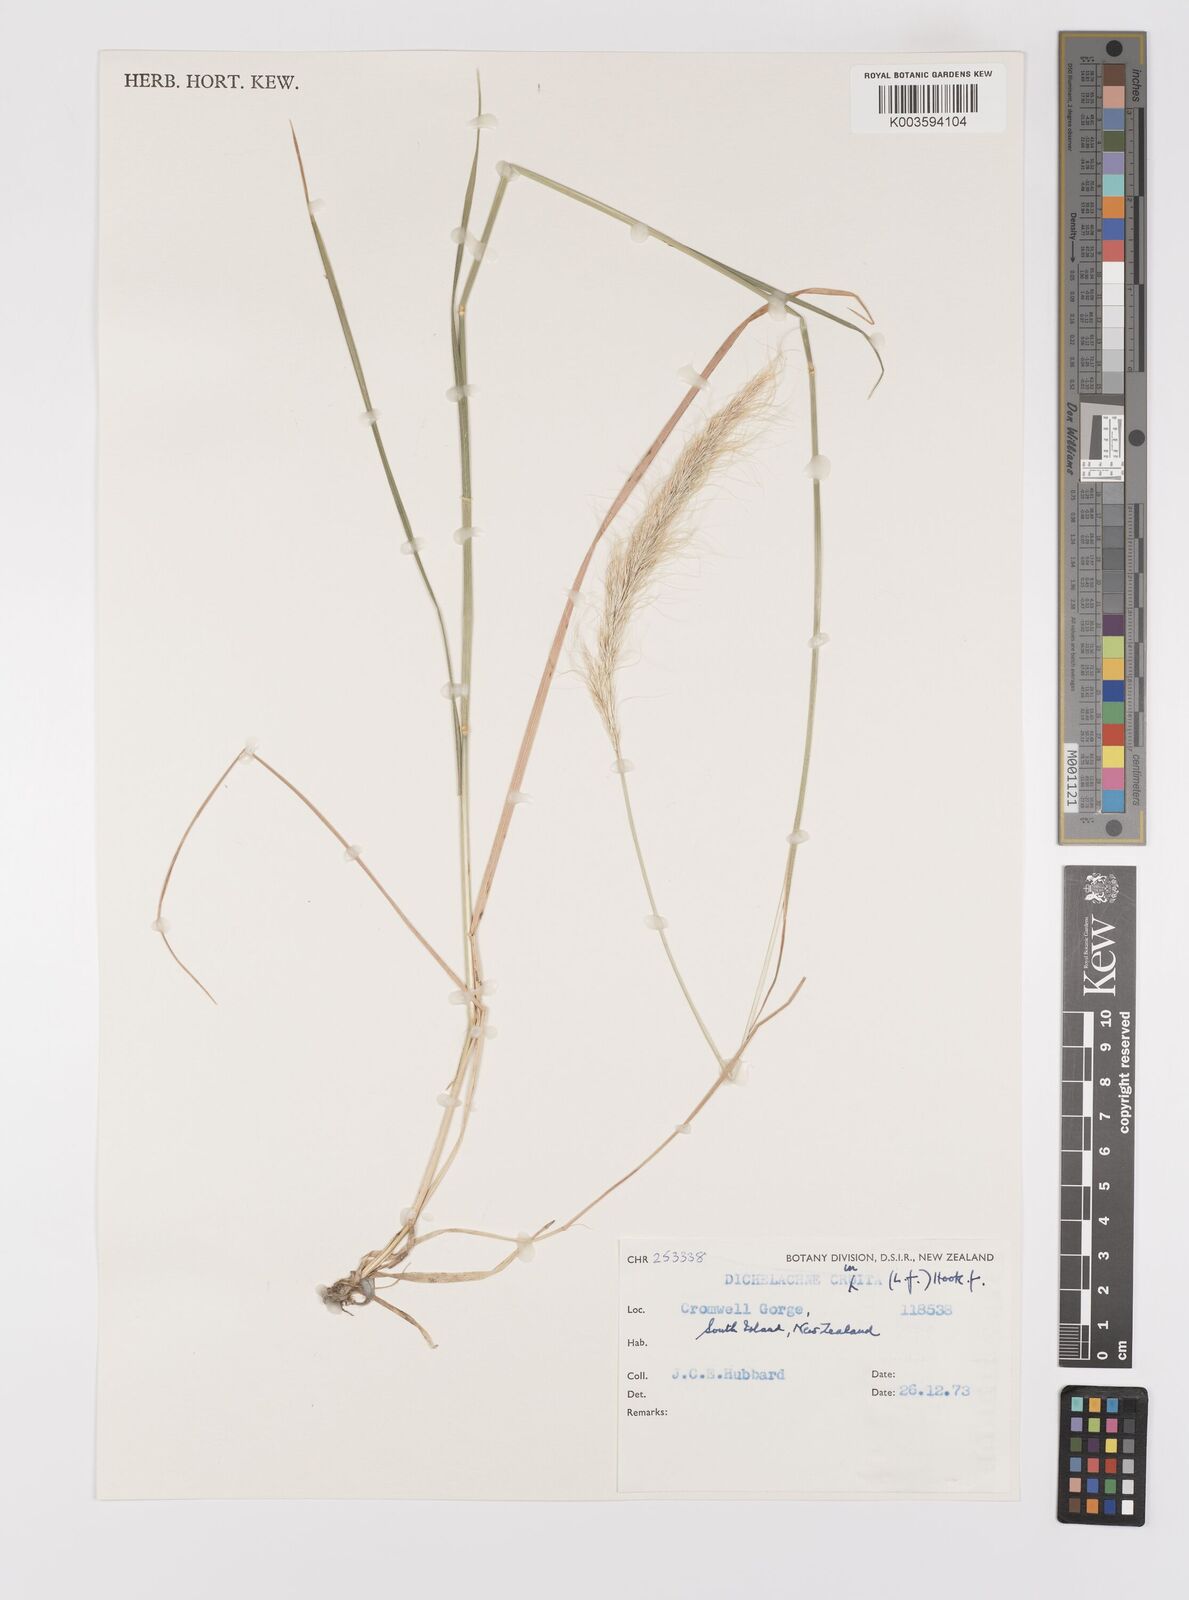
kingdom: Plantae
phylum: Tracheophyta
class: Liliopsida
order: Poales
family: Poaceae
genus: Dichelachne
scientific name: Dichelachne crinita
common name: Clovenfoot plumegrass
